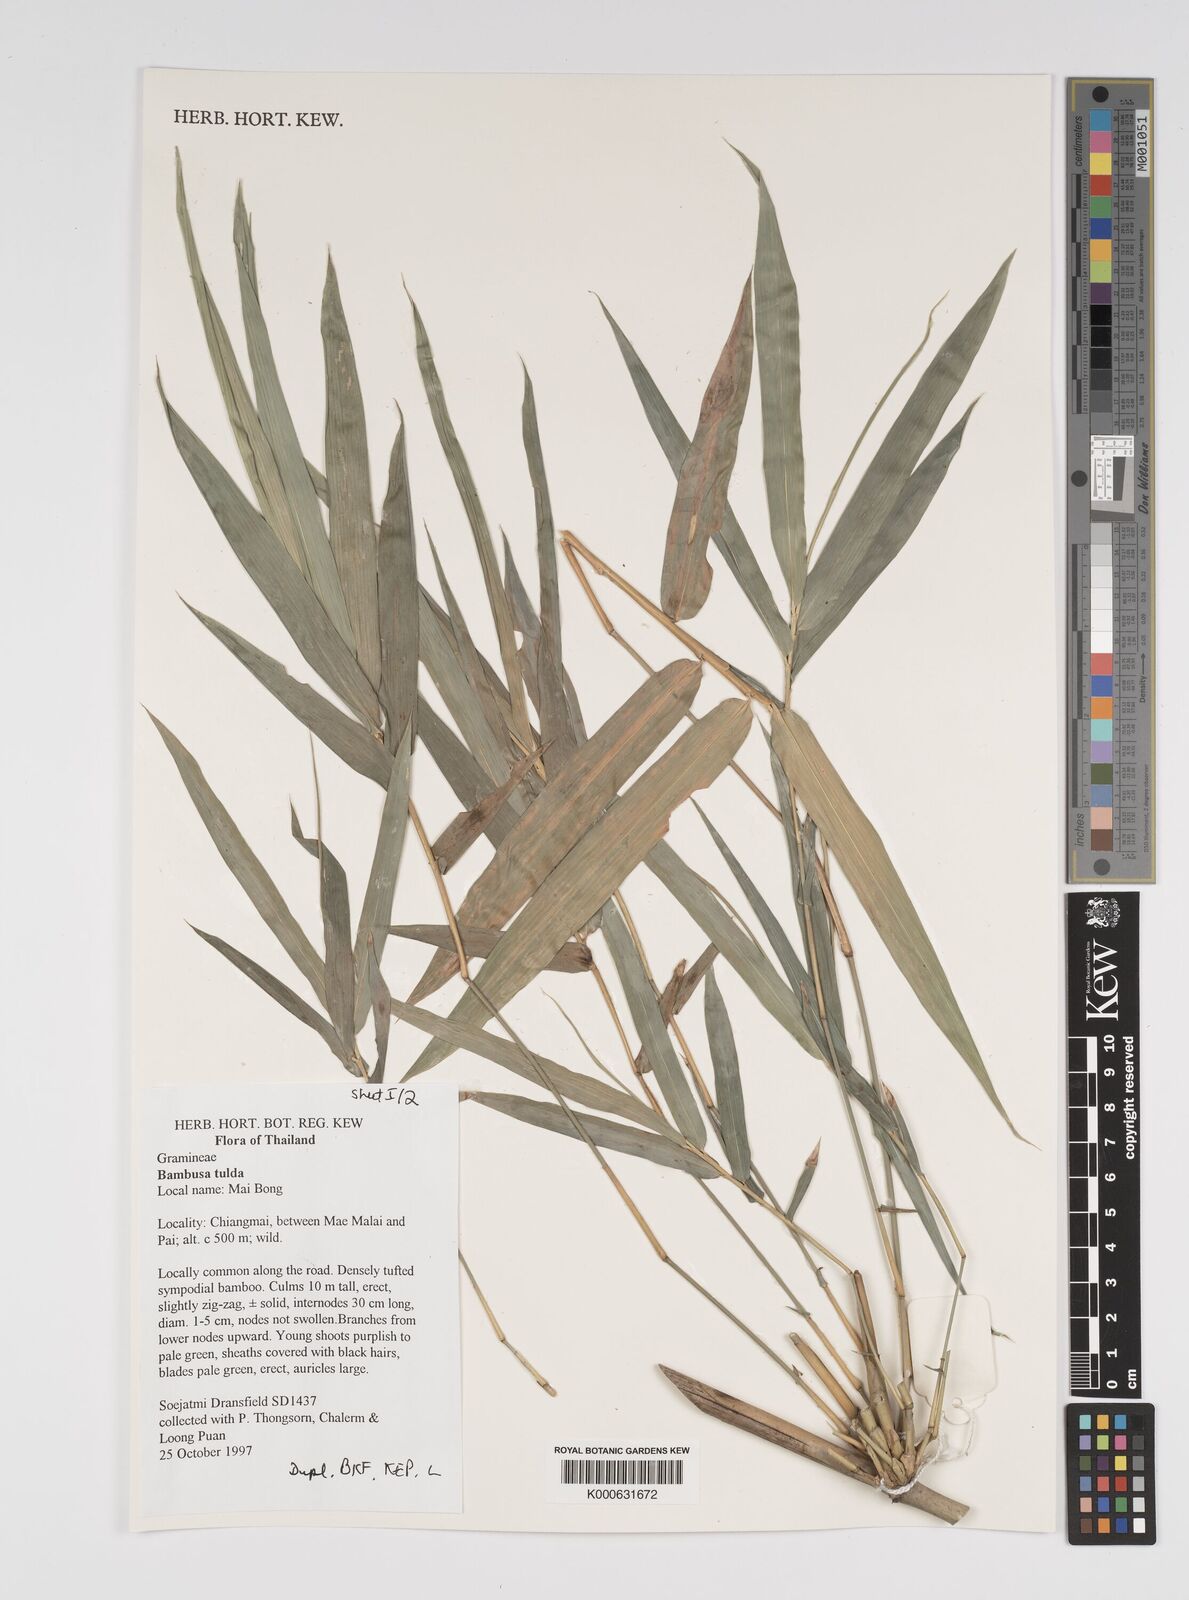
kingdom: Plantae
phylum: Tracheophyta
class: Liliopsida
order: Poales
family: Poaceae
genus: Bambusa
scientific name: Bambusa
